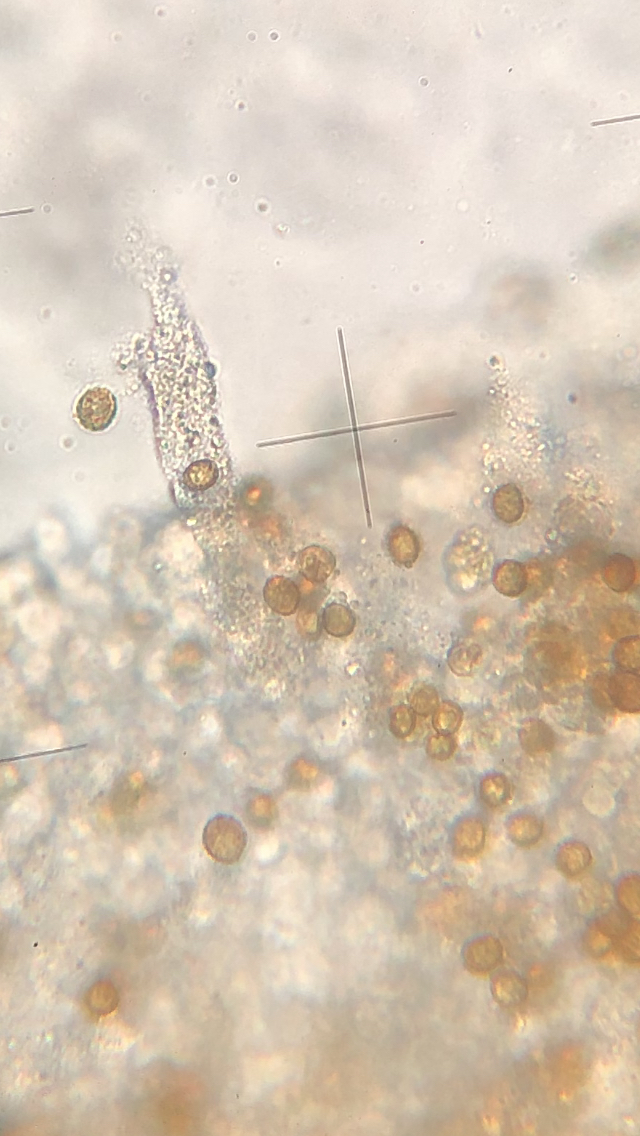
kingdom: Fungi
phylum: Basidiomycota
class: Agaricomycetes
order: Agaricales
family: Cortinariaceae
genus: Cortinarius
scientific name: Cortinarius
